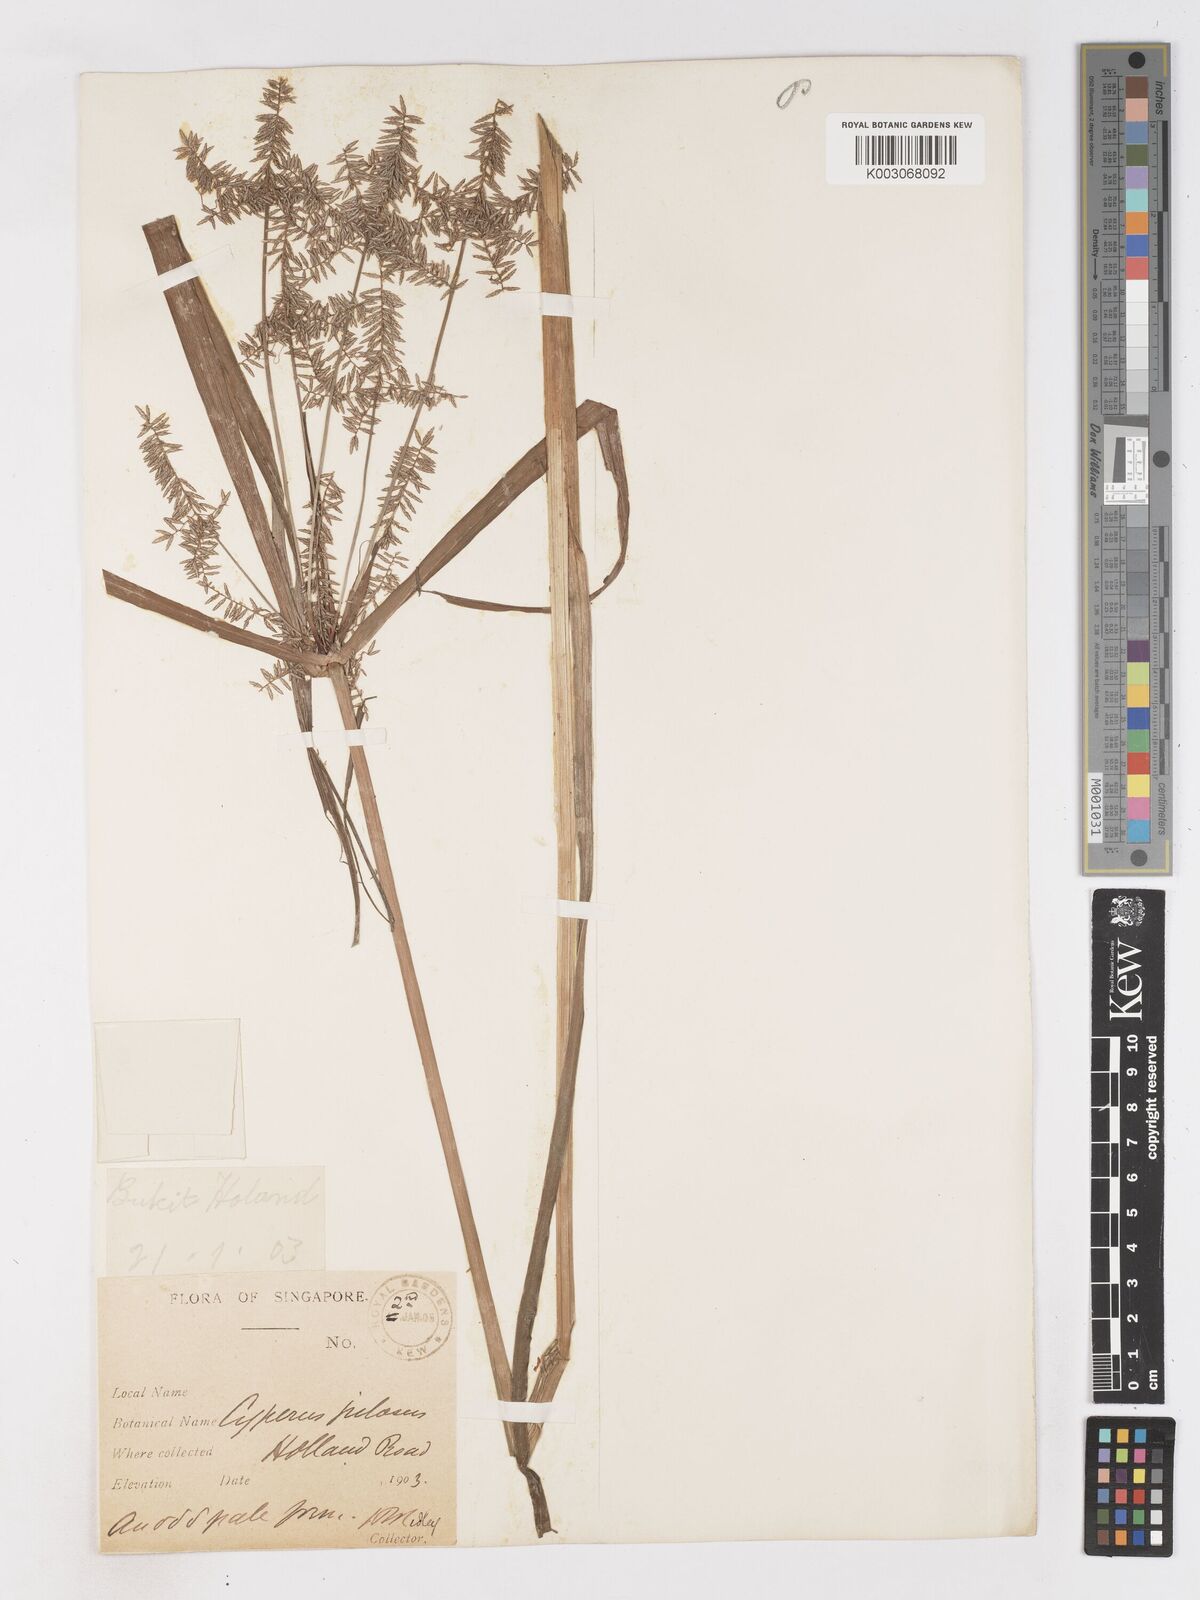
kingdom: Plantae
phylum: Tracheophyta
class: Liliopsida
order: Poales
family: Cyperaceae
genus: Cyperus
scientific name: Cyperus pilosus
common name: Fuzzy flatsedge
